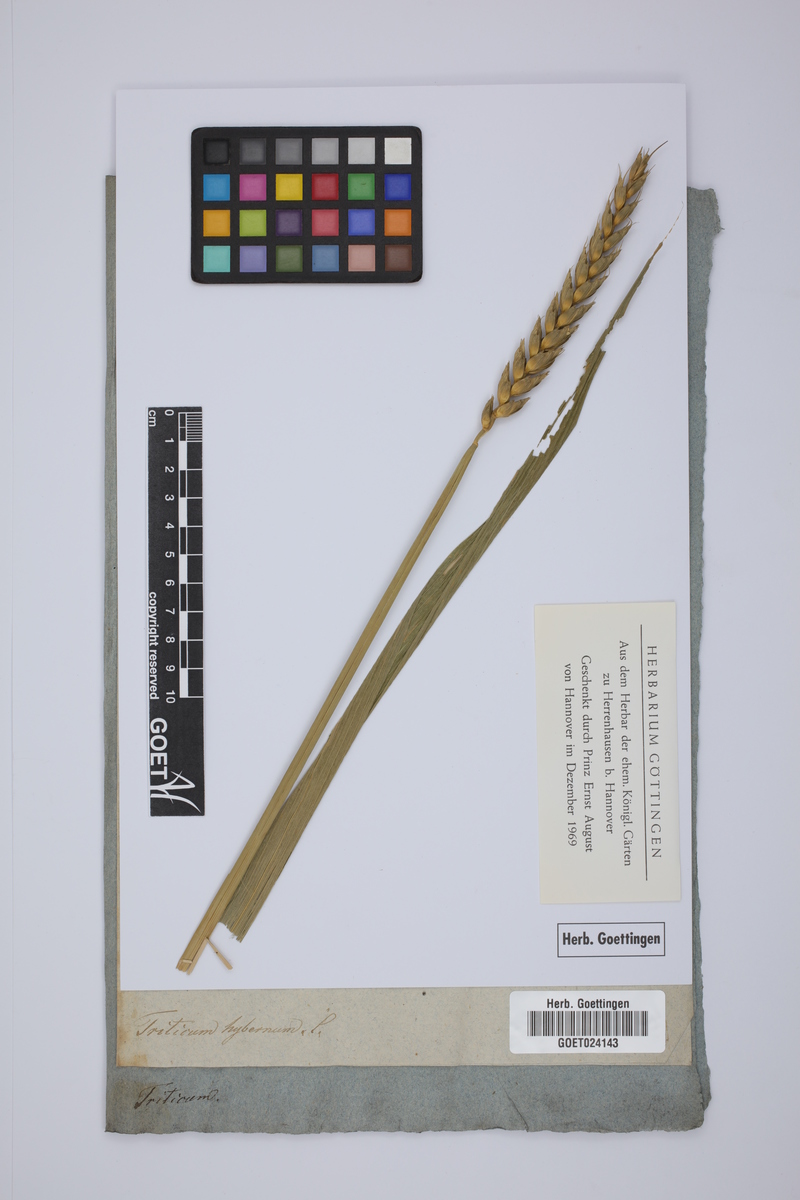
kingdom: Plantae
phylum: Tracheophyta
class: Liliopsida
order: Poales
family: Poaceae
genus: Triticum
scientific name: Triticum aestivum
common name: Common wheat
